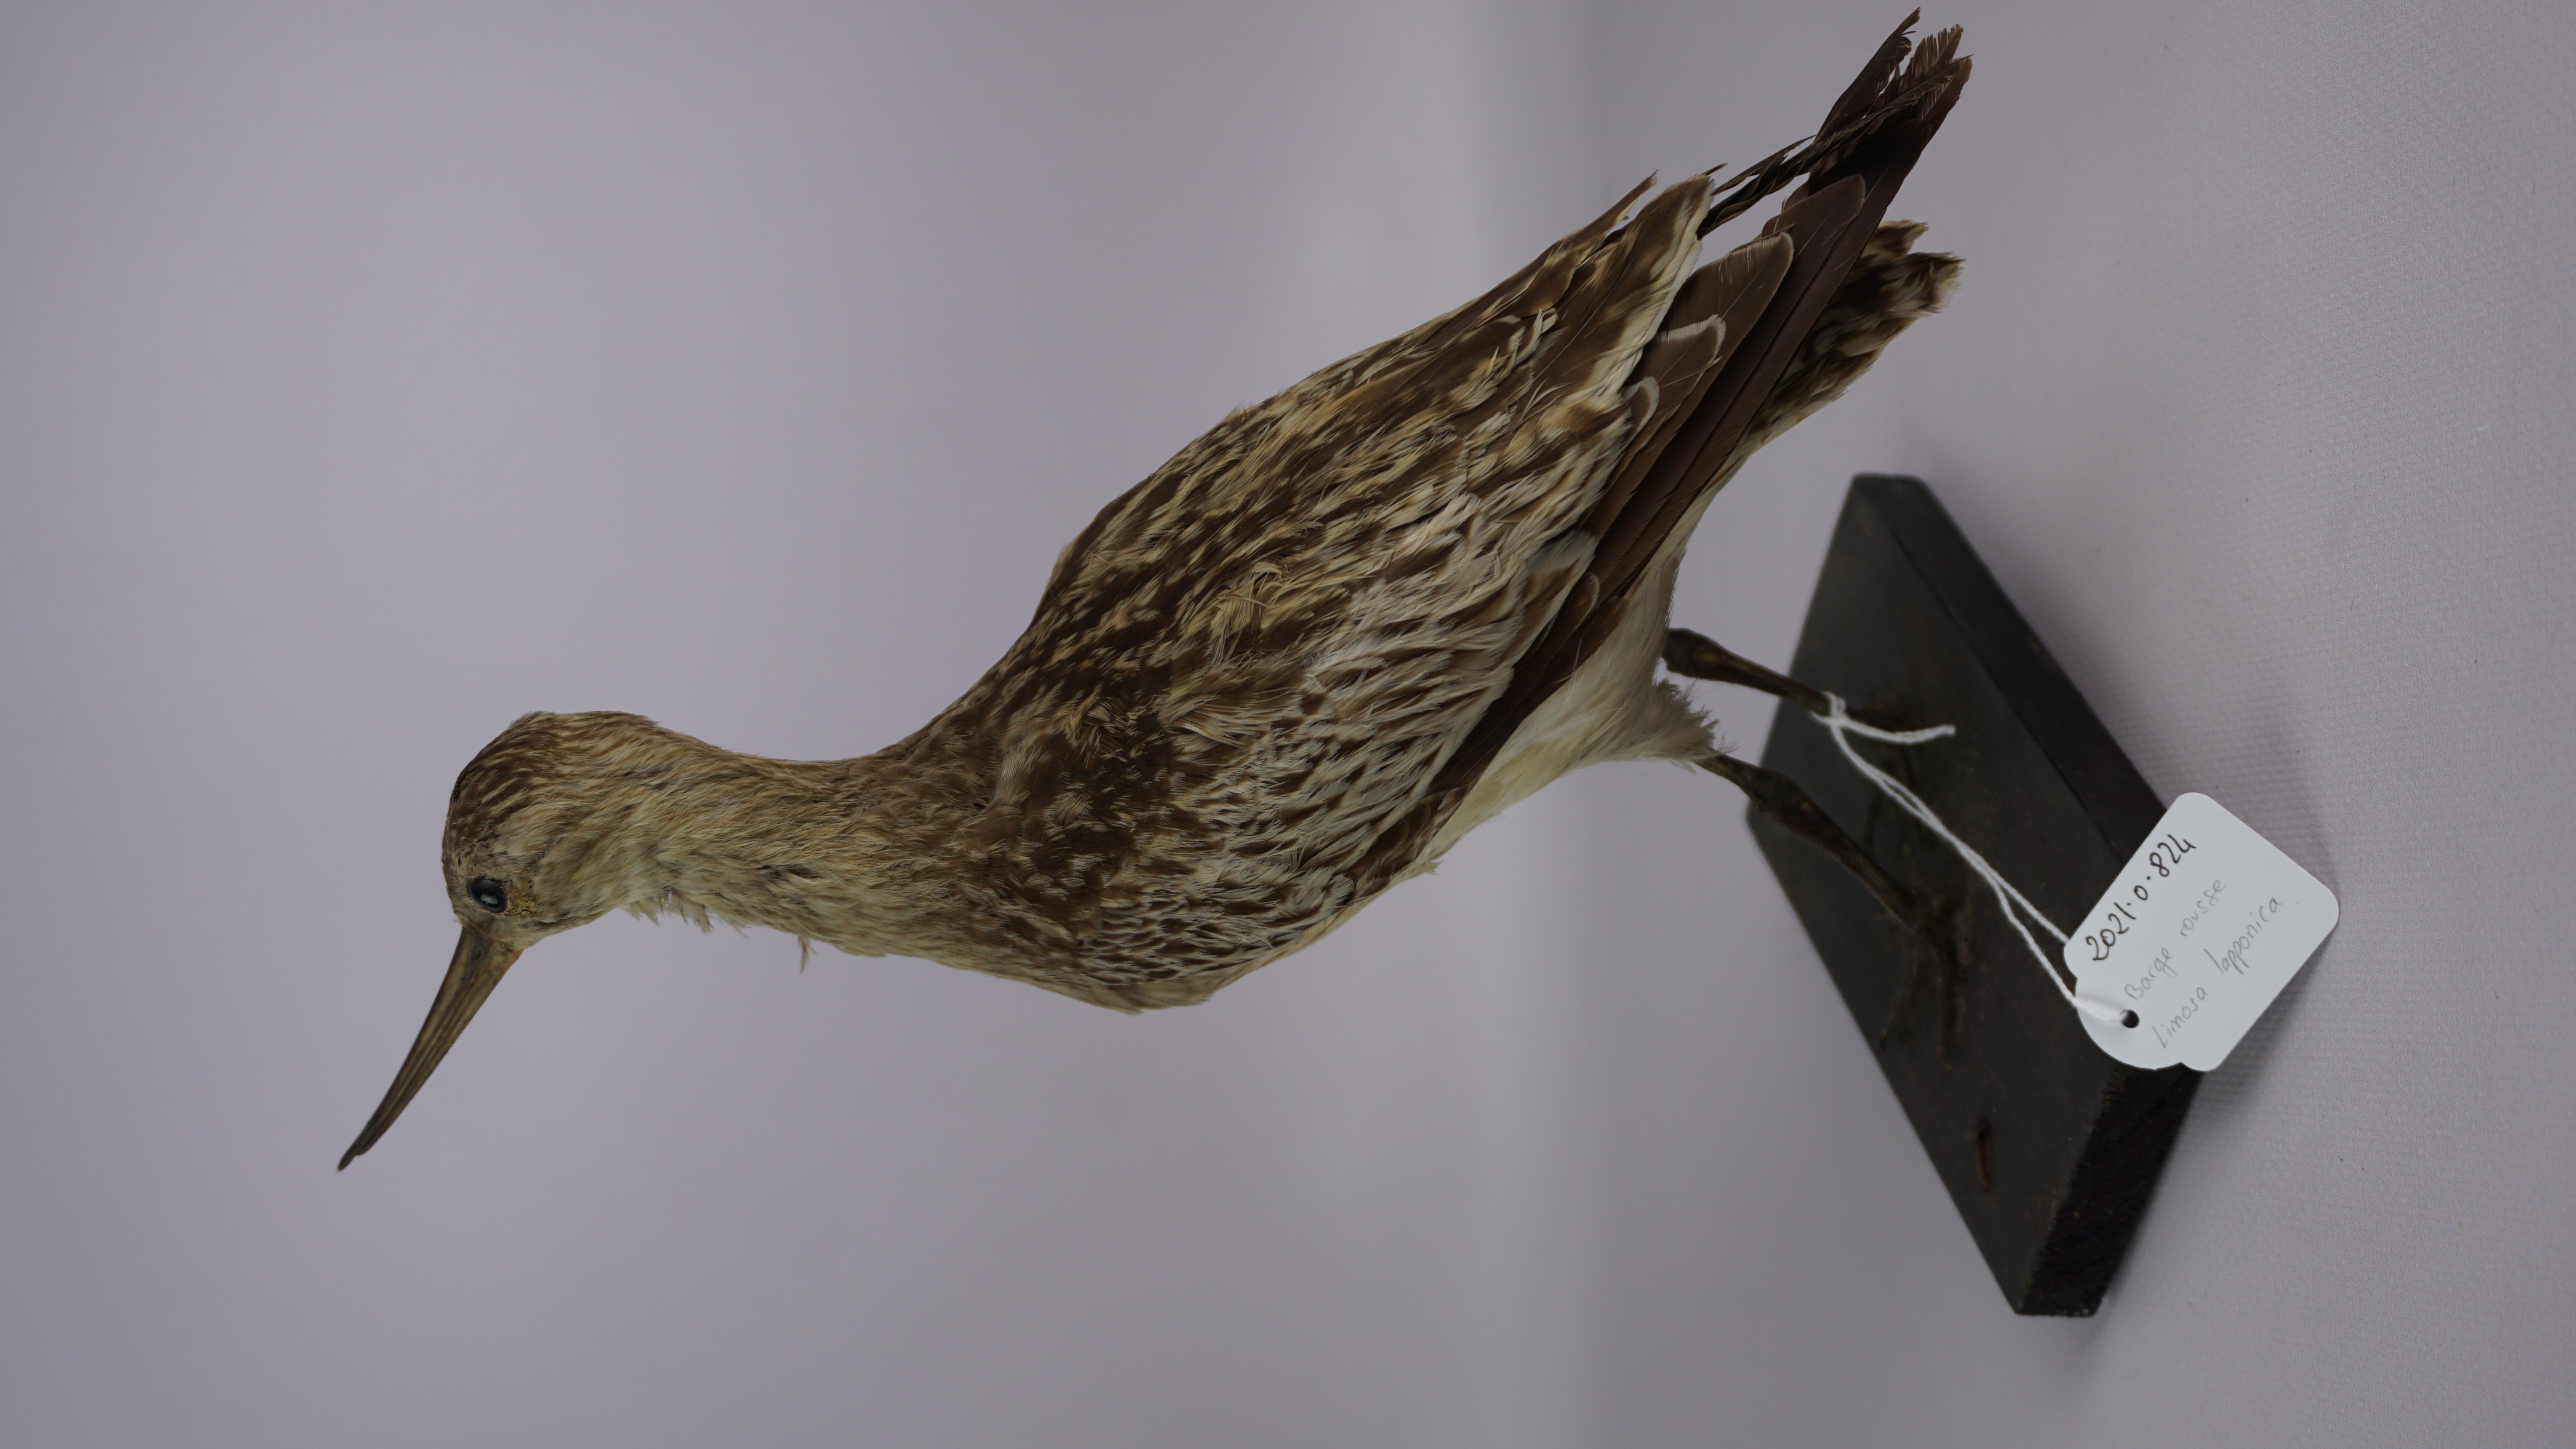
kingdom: Animalia
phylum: Chordata
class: Aves
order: Charadriiformes
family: Scolopacidae
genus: Limosa
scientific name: Limosa lapponica
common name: Bar-tailed godwit
